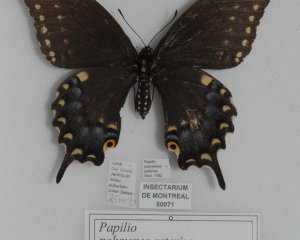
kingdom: Animalia
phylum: Arthropoda
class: Insecta
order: Lepidoptera
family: Papilionidae
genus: Papilio
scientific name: Papilio polyxenes
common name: Black Swallowtail
